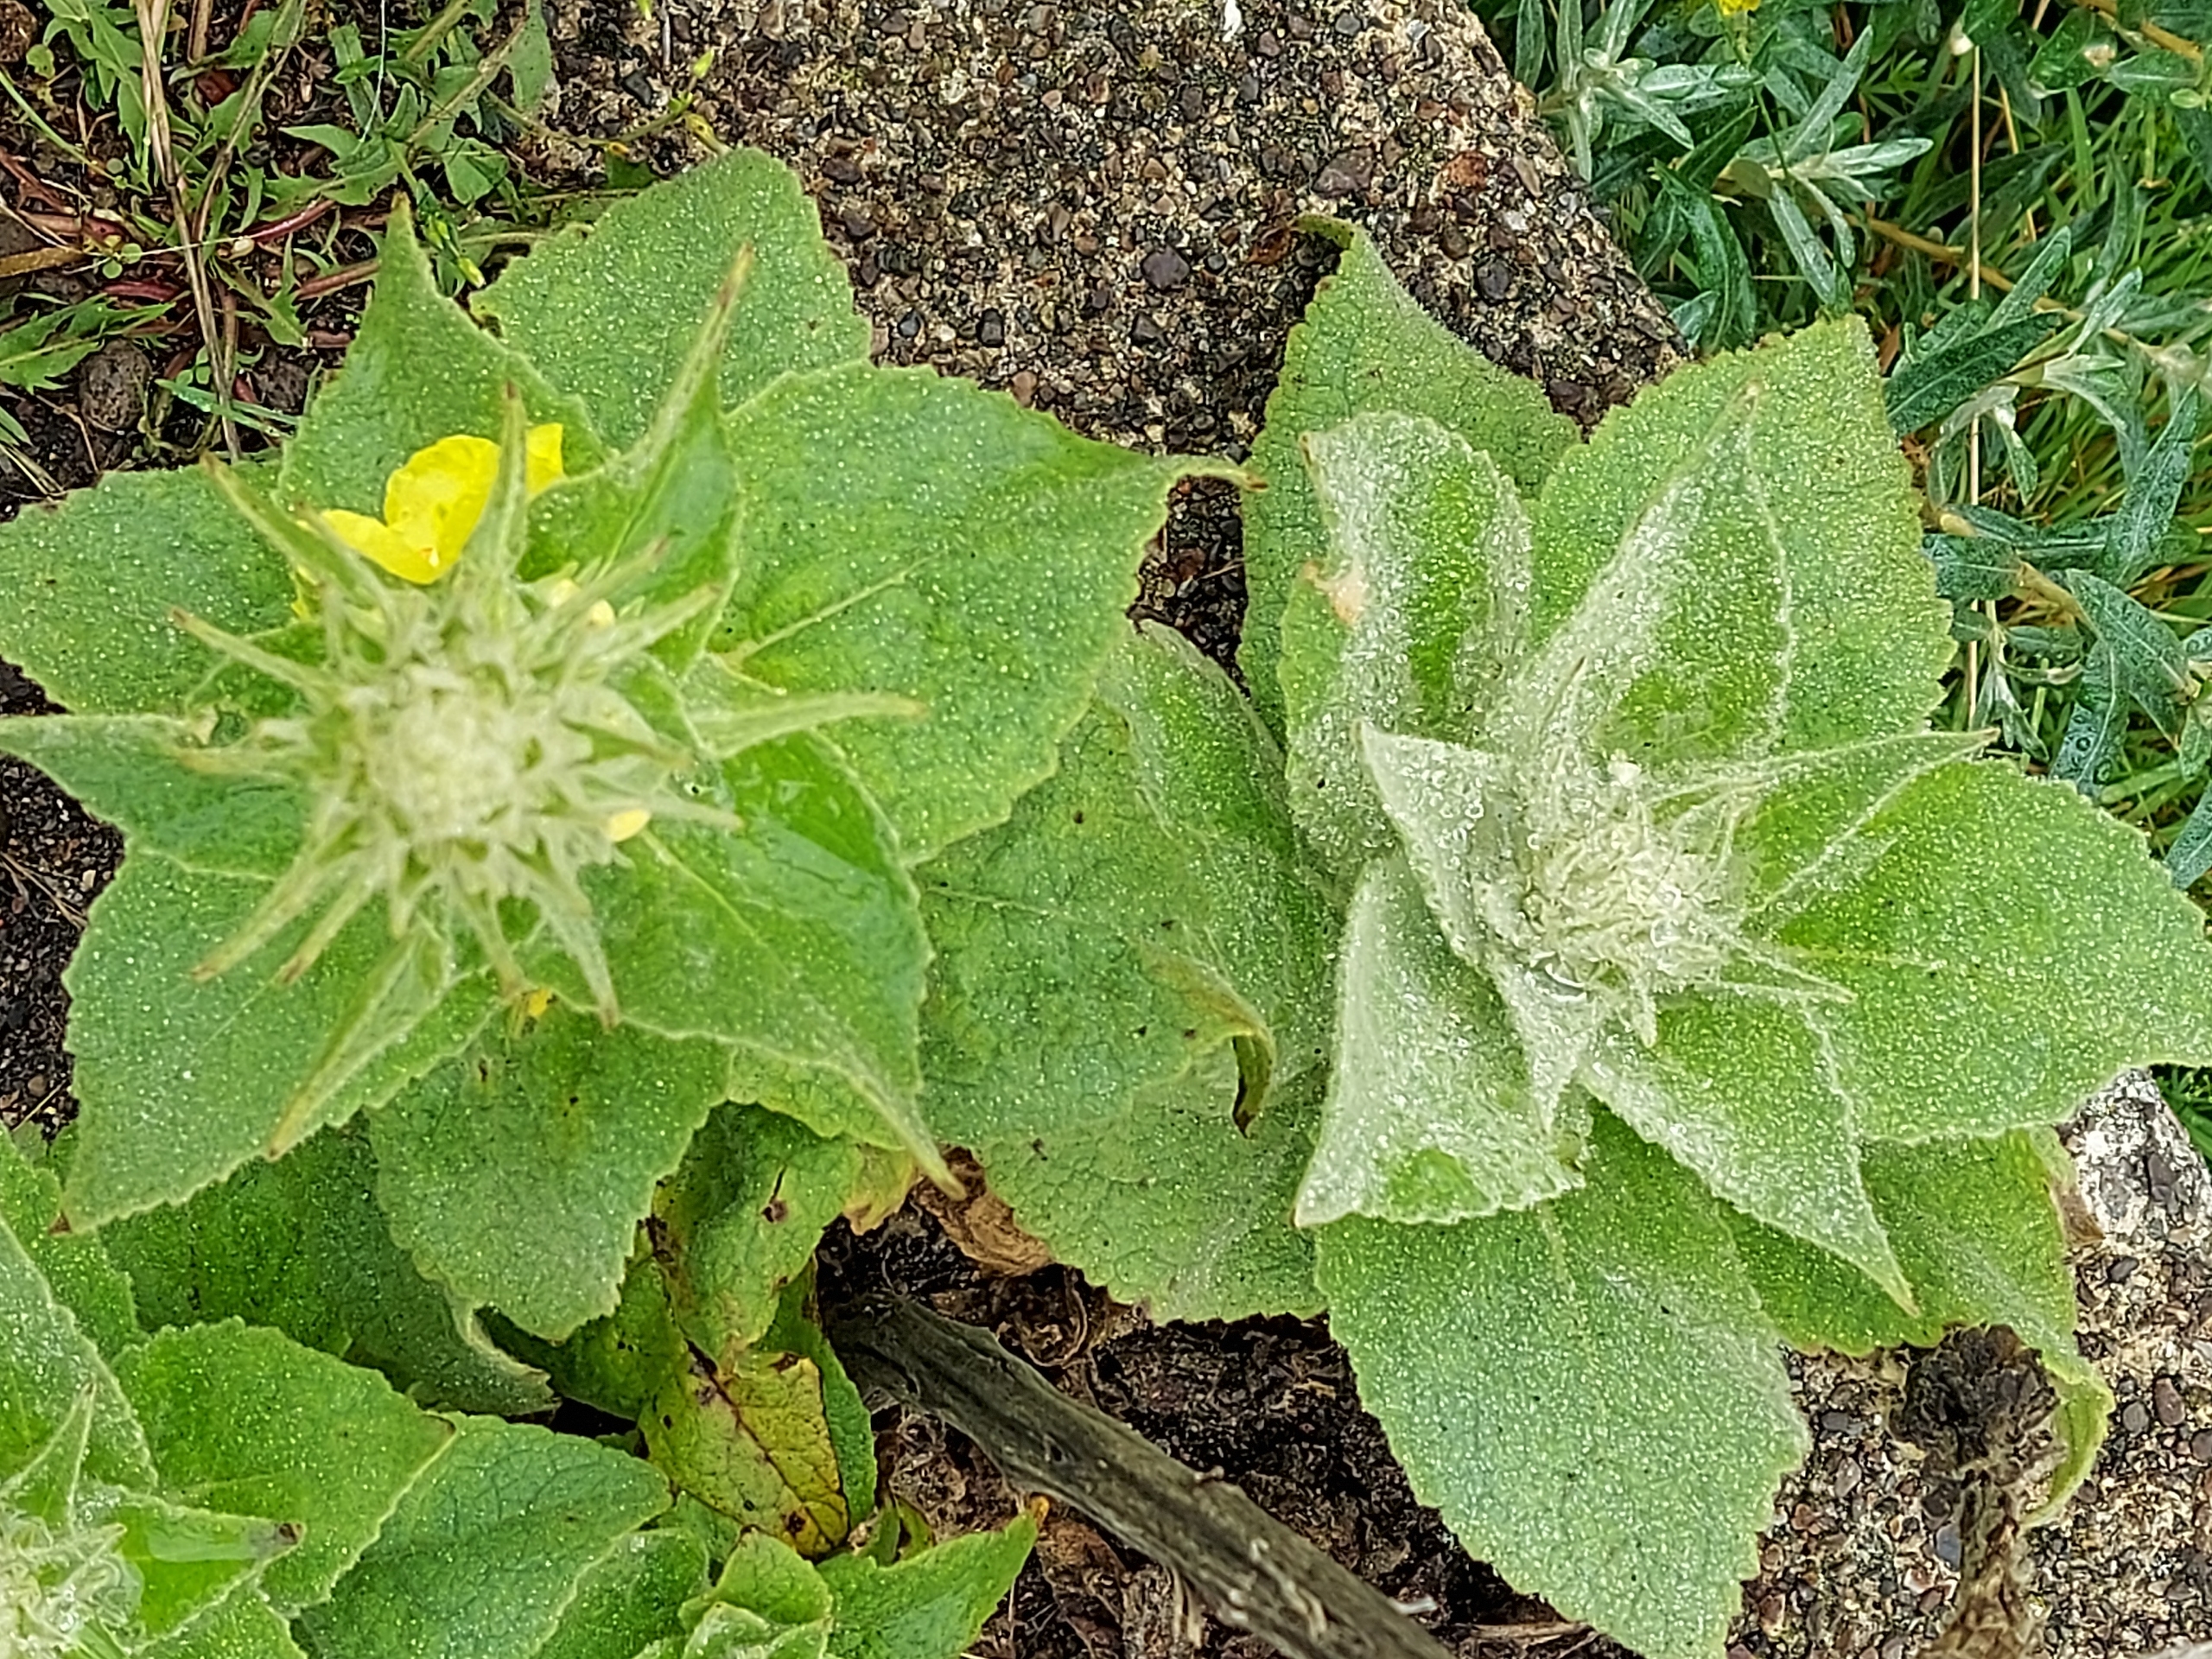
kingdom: Plantae
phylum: Tracheophyta
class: Magnoliopsida
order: Lamiales
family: Scrophulariaceae
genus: Verbascum
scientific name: Verbascum densiflorum
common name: Uldbladet kongelys
